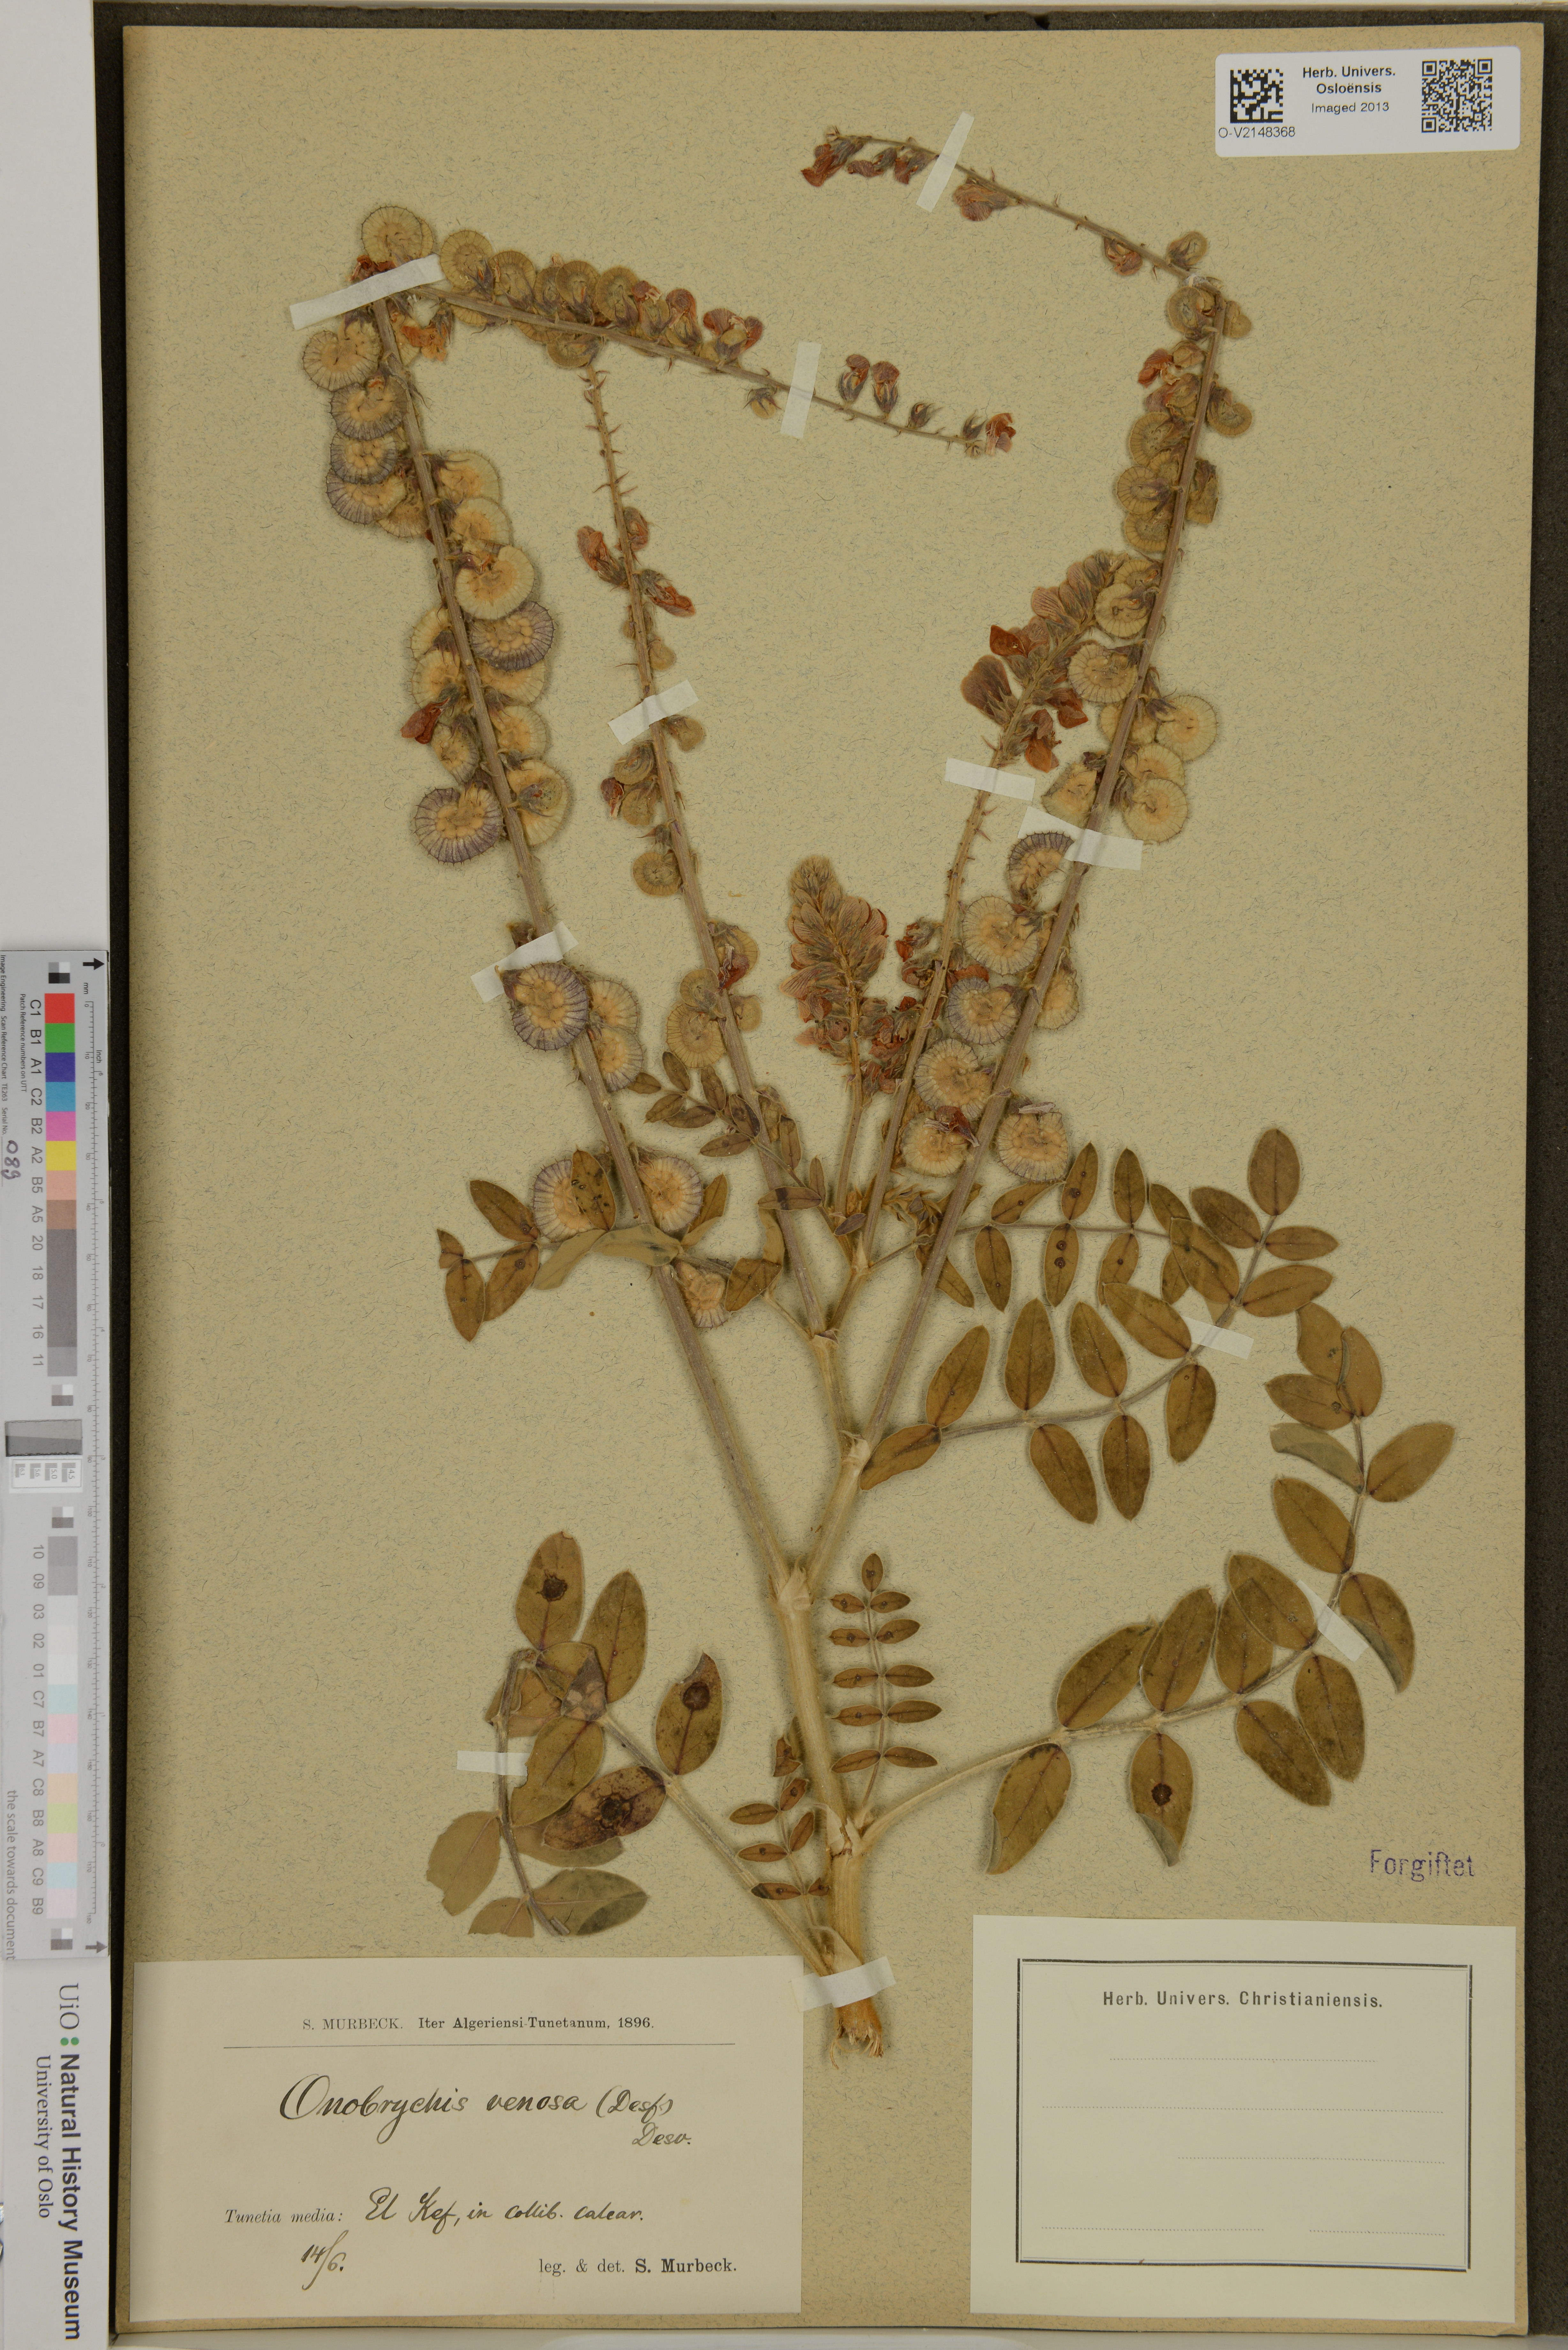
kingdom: Plantae
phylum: Tracheophyta
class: Magnoliopsida
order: Fabales
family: Fabaceae
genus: Onobrychis
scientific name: Onobrychis venosa
